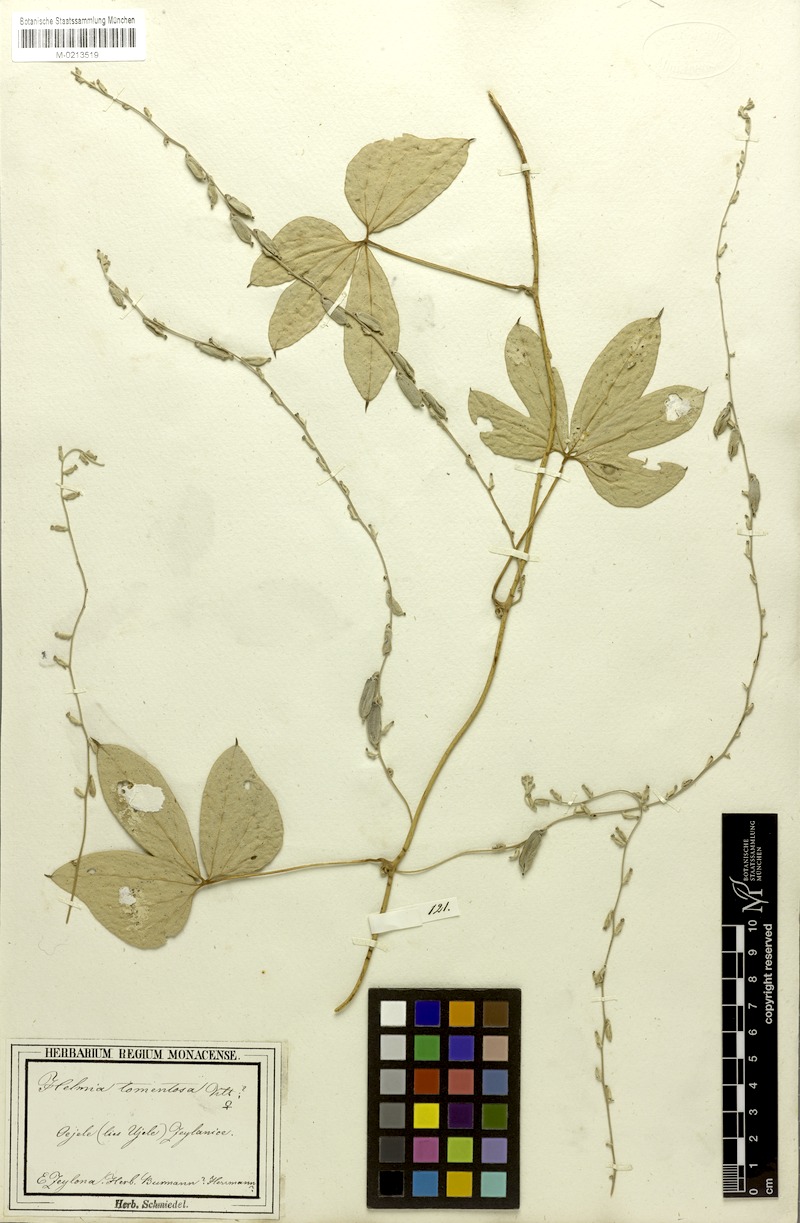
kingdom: Plantae
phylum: Tracheophyta
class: Liliopsida
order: Dioscoreales
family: Dioscoreaceae
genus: Dioscorea
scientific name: Dioscorea tomentosa
